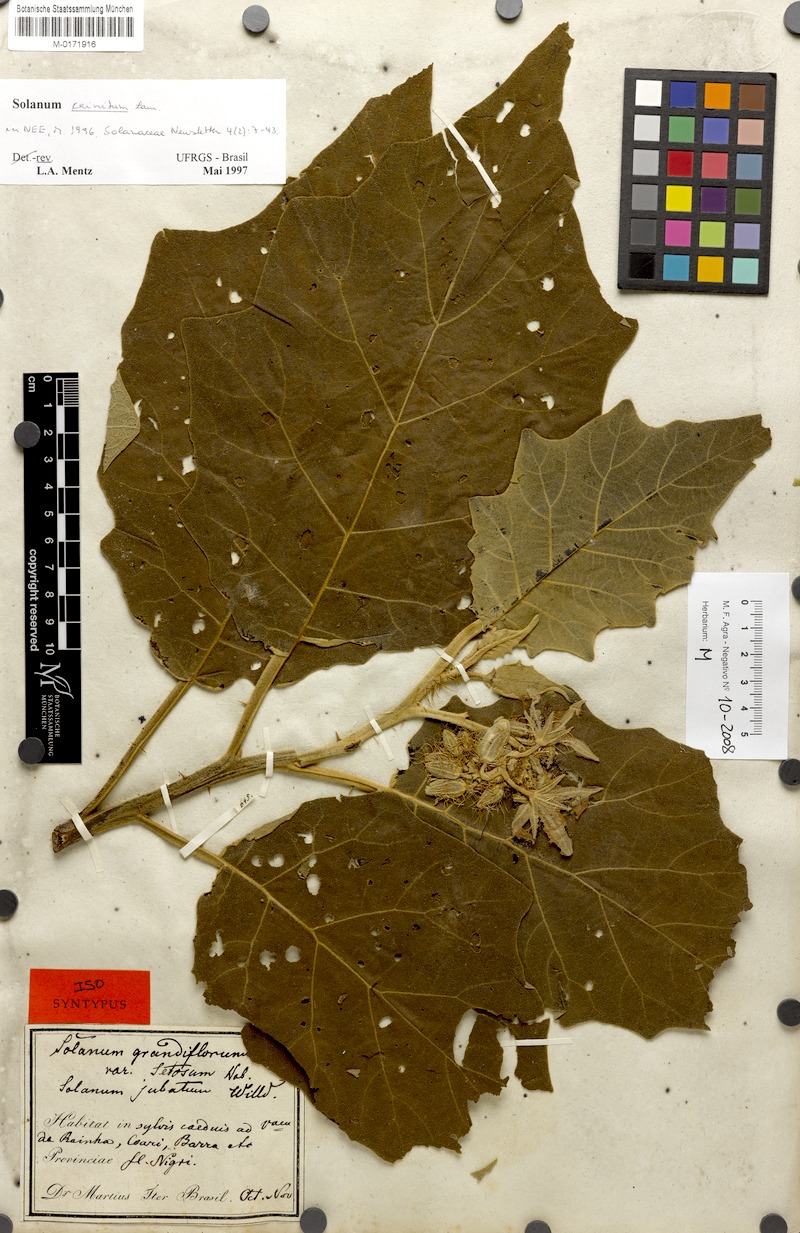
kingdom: Plantae
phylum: Tracheophyta
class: Magnoliopsida
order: Solanales
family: Solanaceae
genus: Solanum
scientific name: Solanum crinitum
